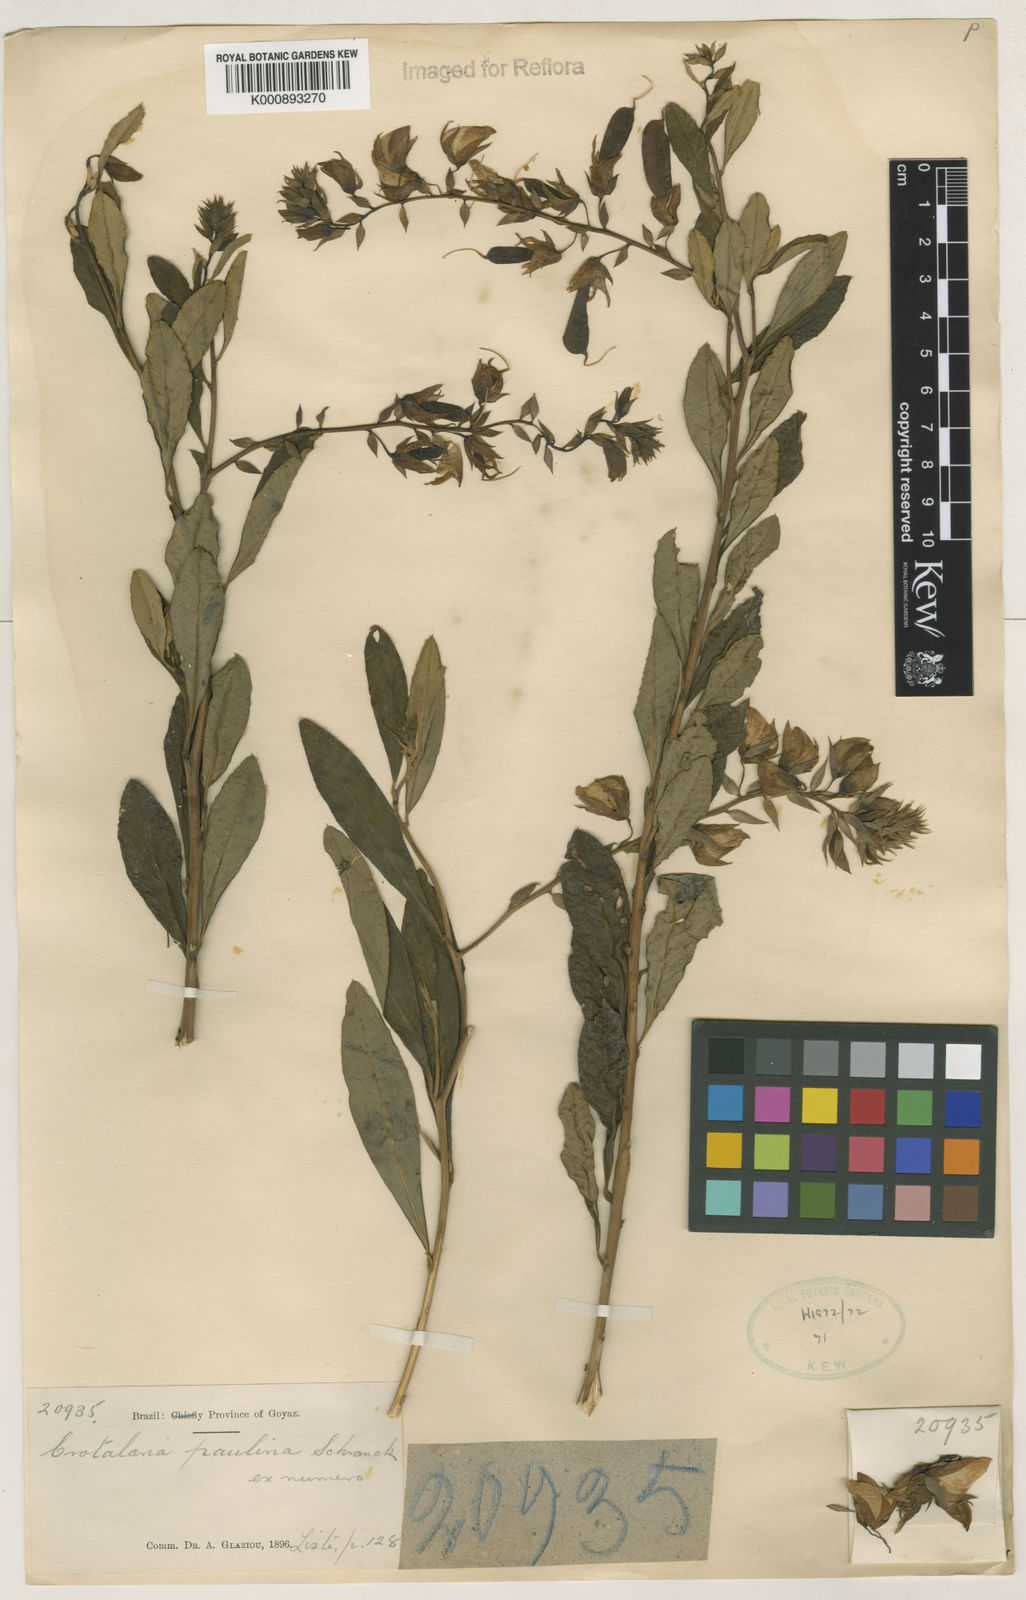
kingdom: Plantae
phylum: Tracheophyta
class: Magnoliopsida
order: Fabales
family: Fabaceae
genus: Crotalaria
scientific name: Crotalaria paulina
